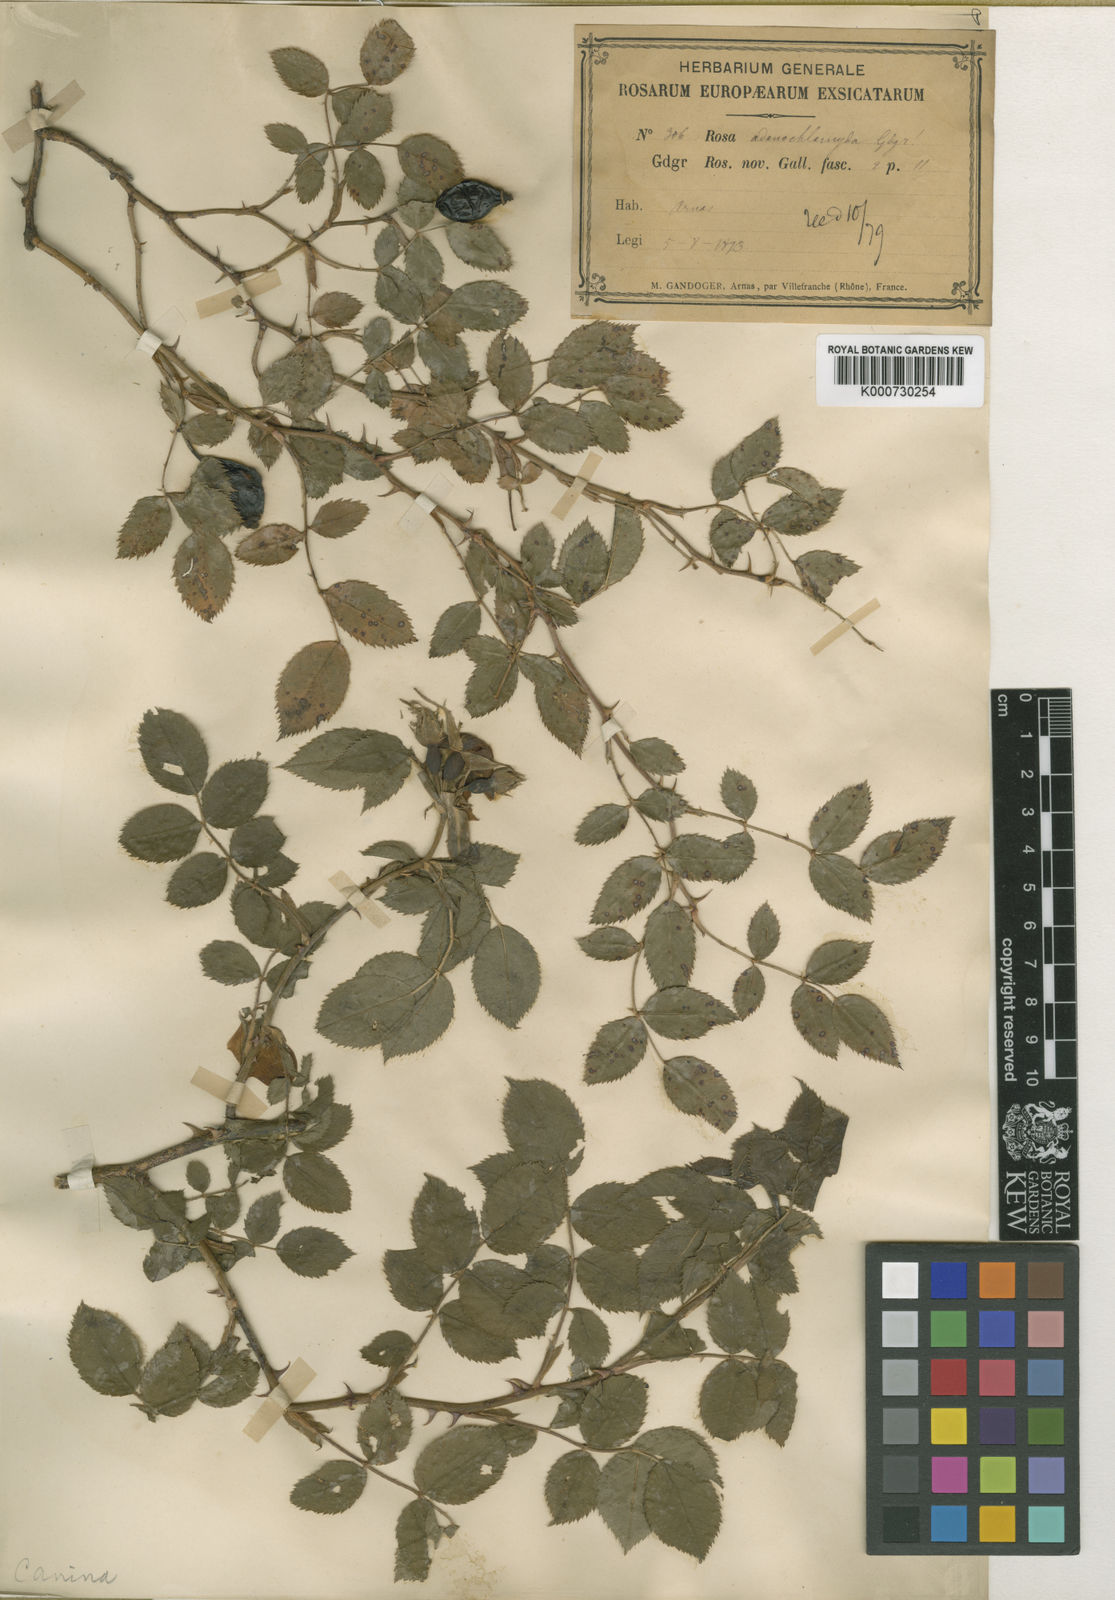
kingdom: Plantae
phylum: Tracheophyta
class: Magnoliopsida
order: Rosales
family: Rosaceae
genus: Rosa
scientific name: Rosa canina
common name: Dog rose
